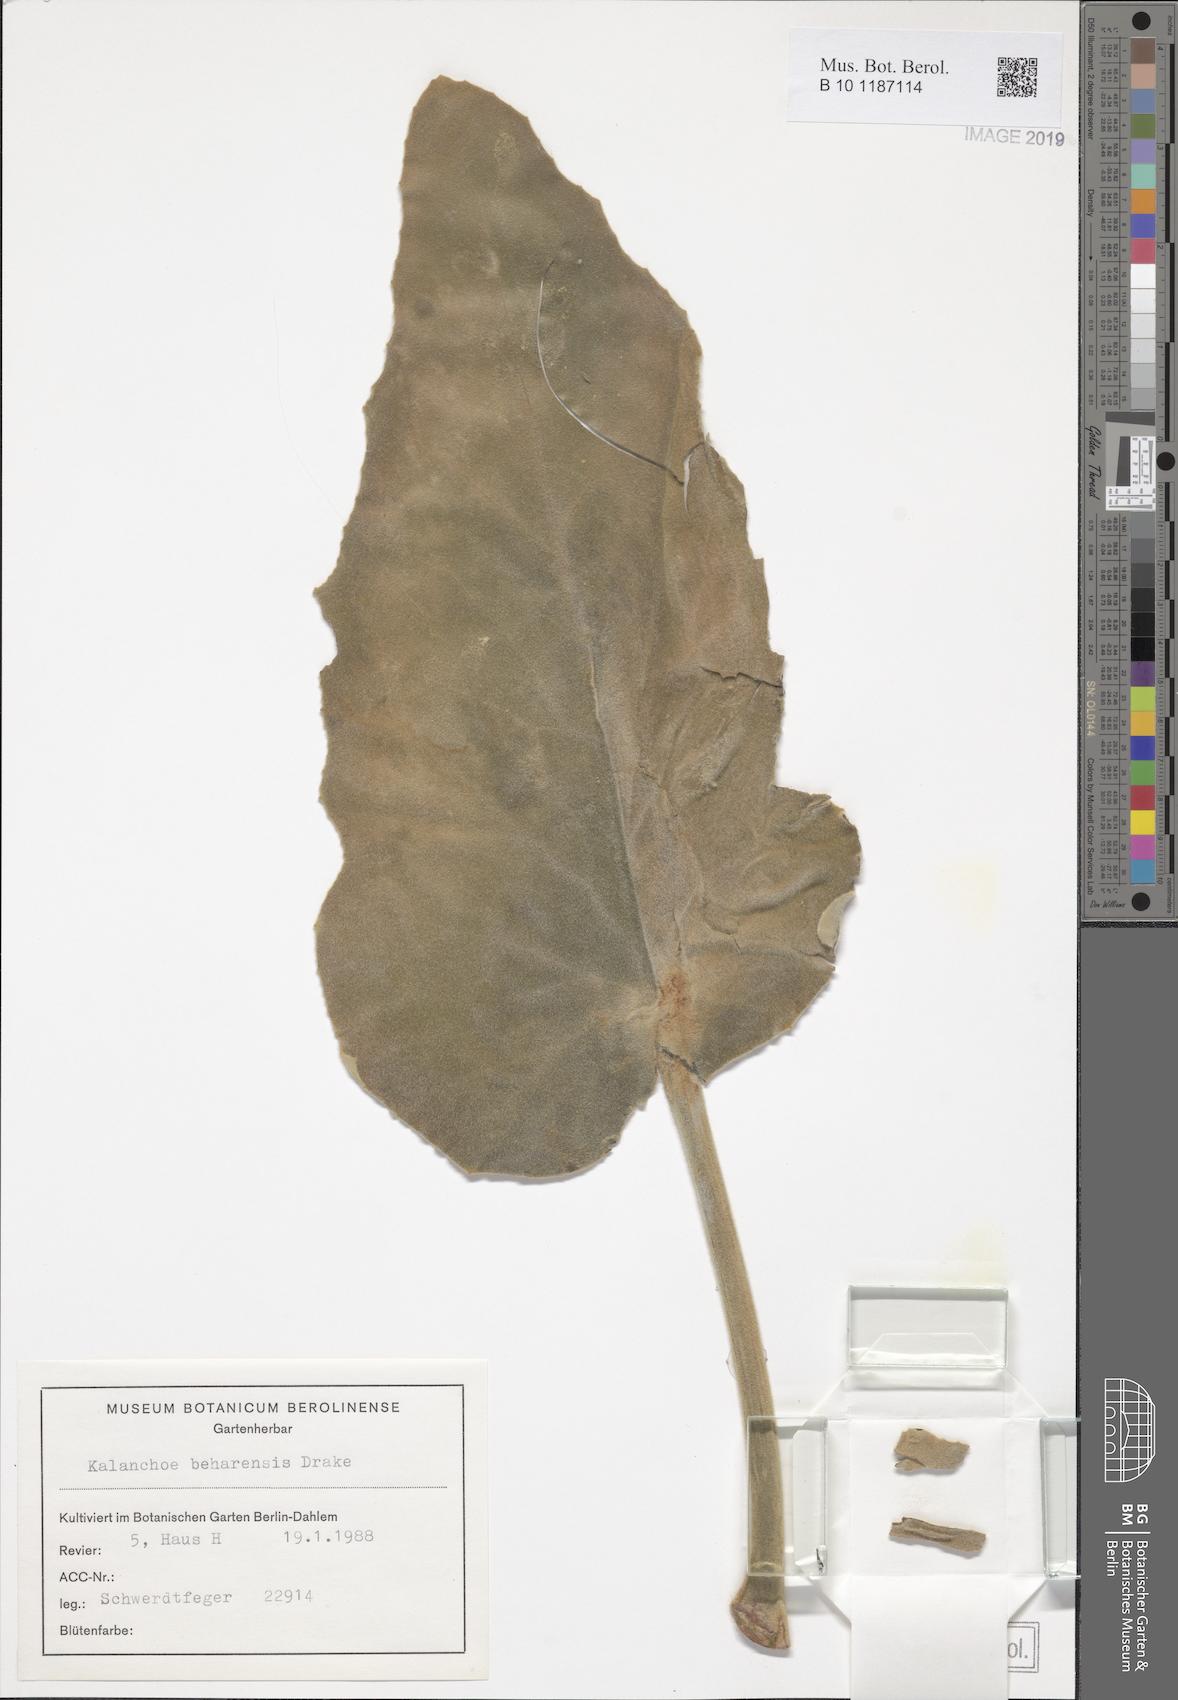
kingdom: Plantae
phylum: Tracheophyta
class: Magnoliopsida
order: Saxifragales
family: Crassulaceae
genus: Kalanchoe
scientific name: Kalanchoe beharensis
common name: Velvet leaf
